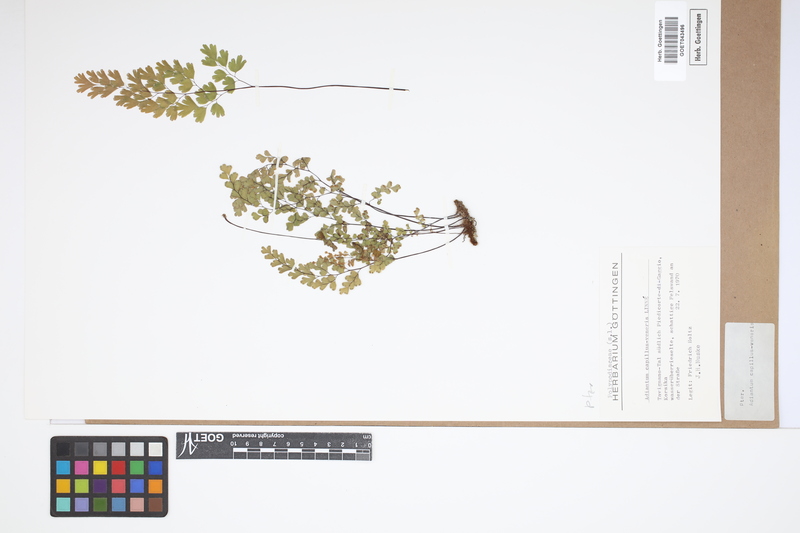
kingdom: Plantae
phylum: Tracheophyta
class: Polypodiopsida
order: Polypodiales
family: Pteridaceae
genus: Adiantum
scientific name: Adiantum capillus-veneris
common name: Maidenhair fern
